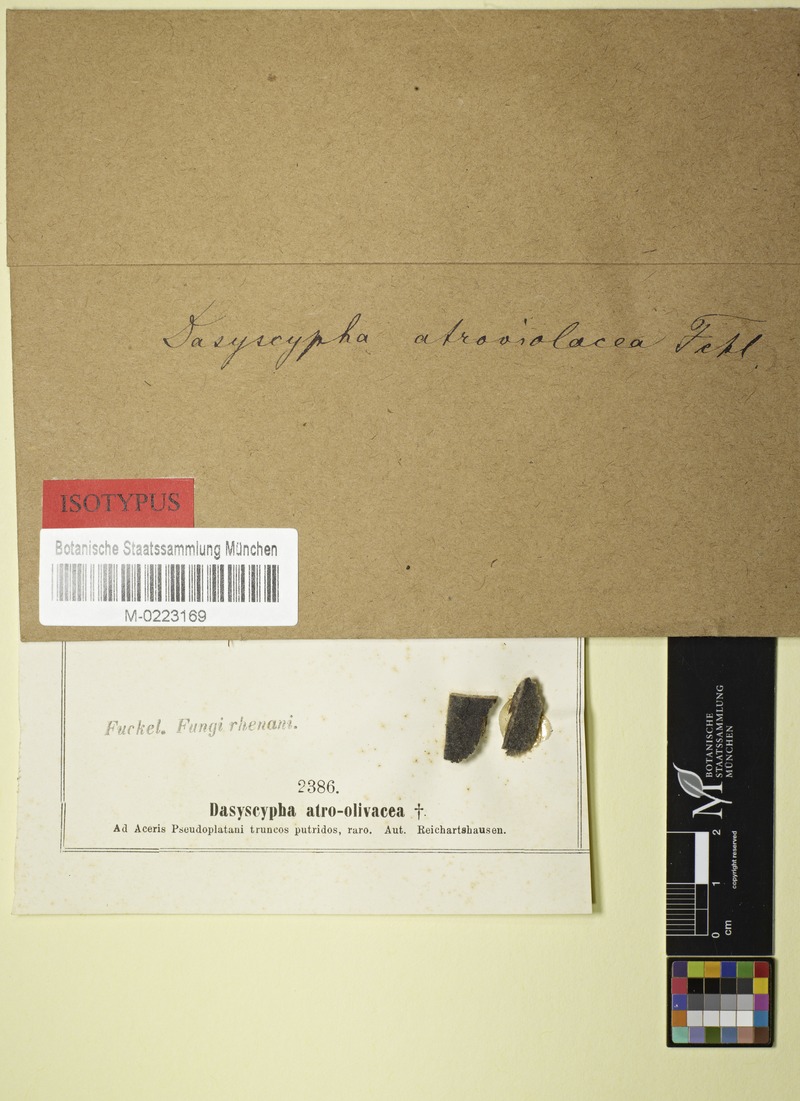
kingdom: Fungi
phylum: Ascomycota
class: Leotiomycetes
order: Helotiales
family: Lachnaceae
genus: Dasyscyphus
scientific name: Dasyscyphus
